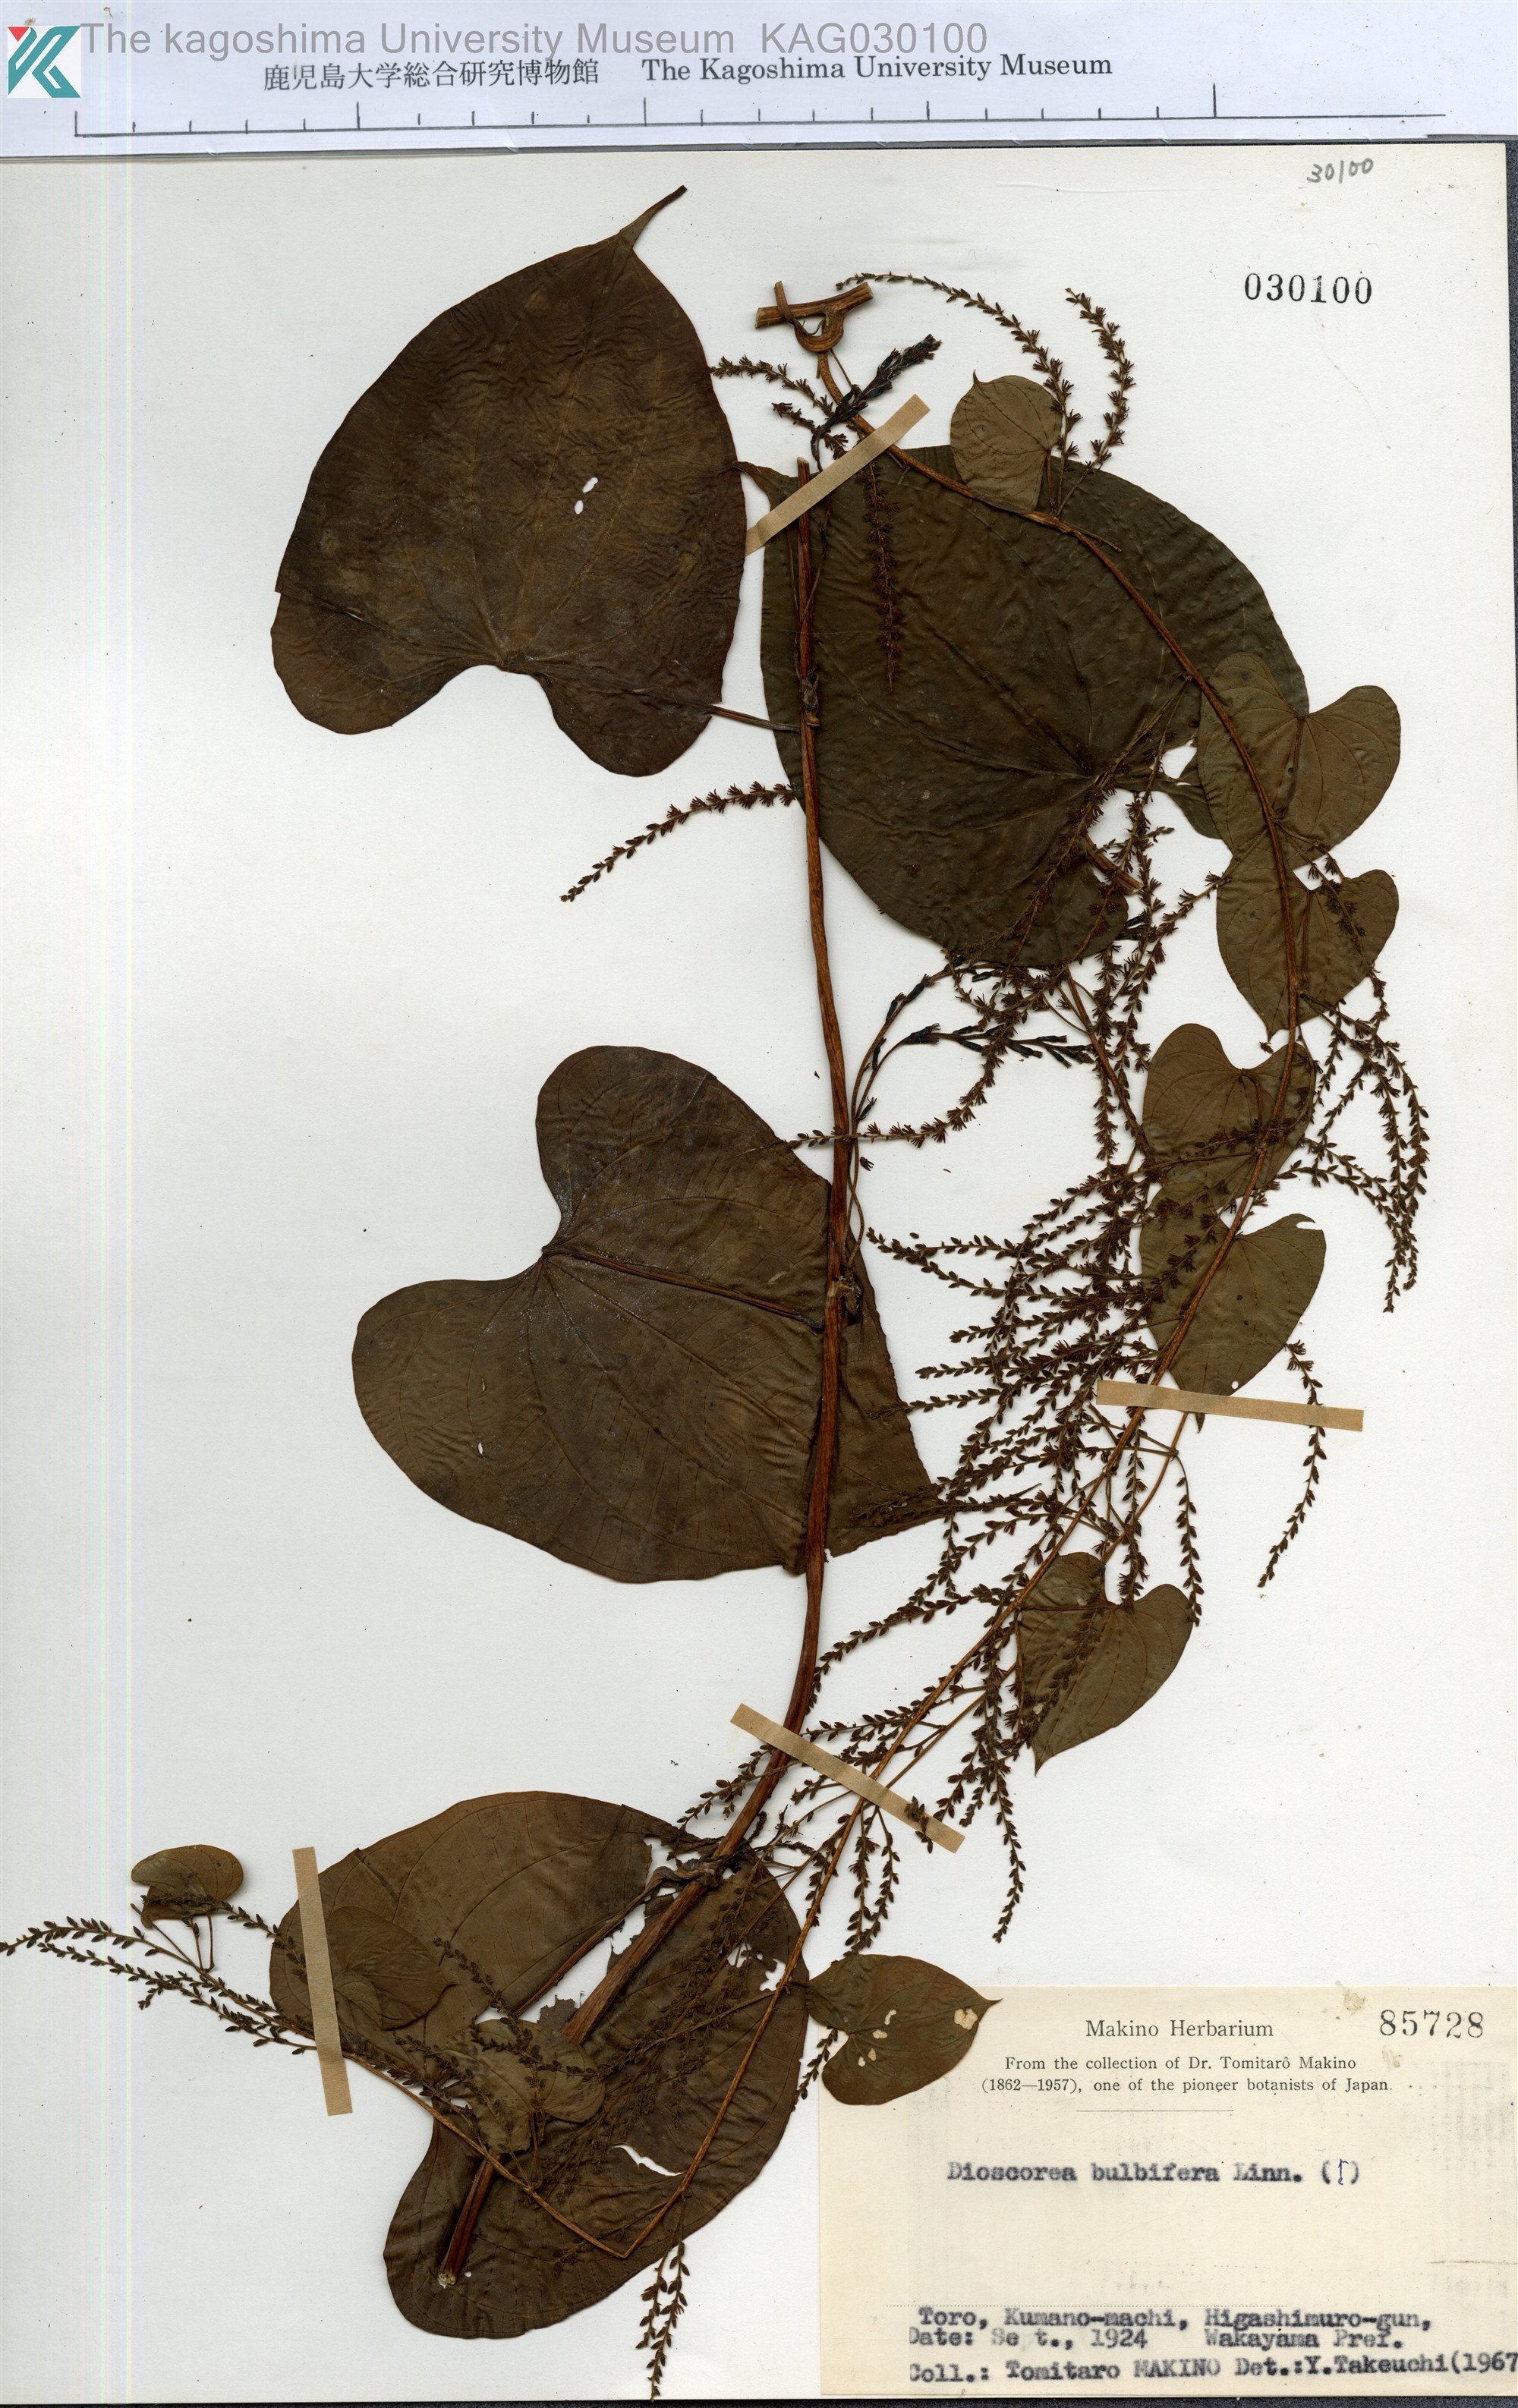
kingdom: Plantae
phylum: Tracheophyta
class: Liliopsida
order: Dioscoreales
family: Dioscoreaceae
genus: Dioscorea
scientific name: Dioscorea bulbifera
